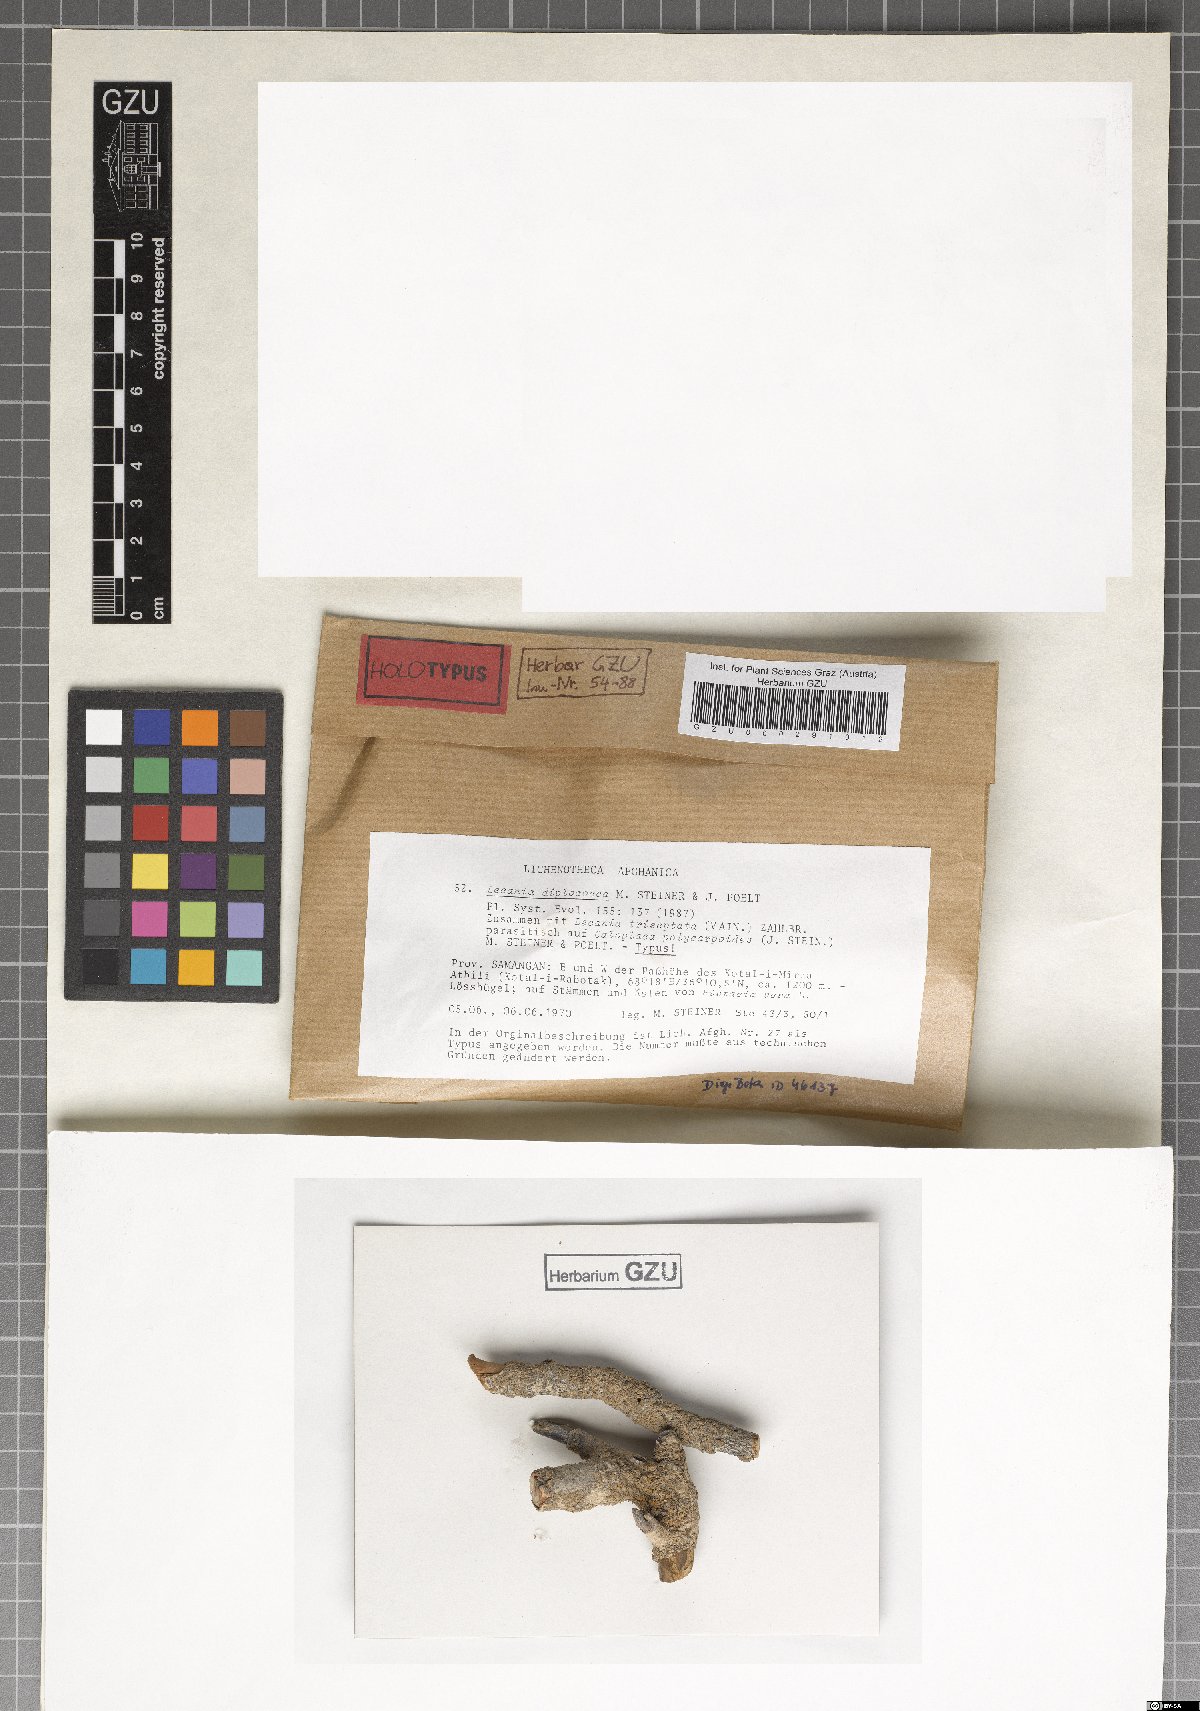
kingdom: Fungi
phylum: Ascomycota
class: Lecanoromycetes
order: Lecanorales
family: Ramalinaceae
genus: Lecania
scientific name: Lecania
